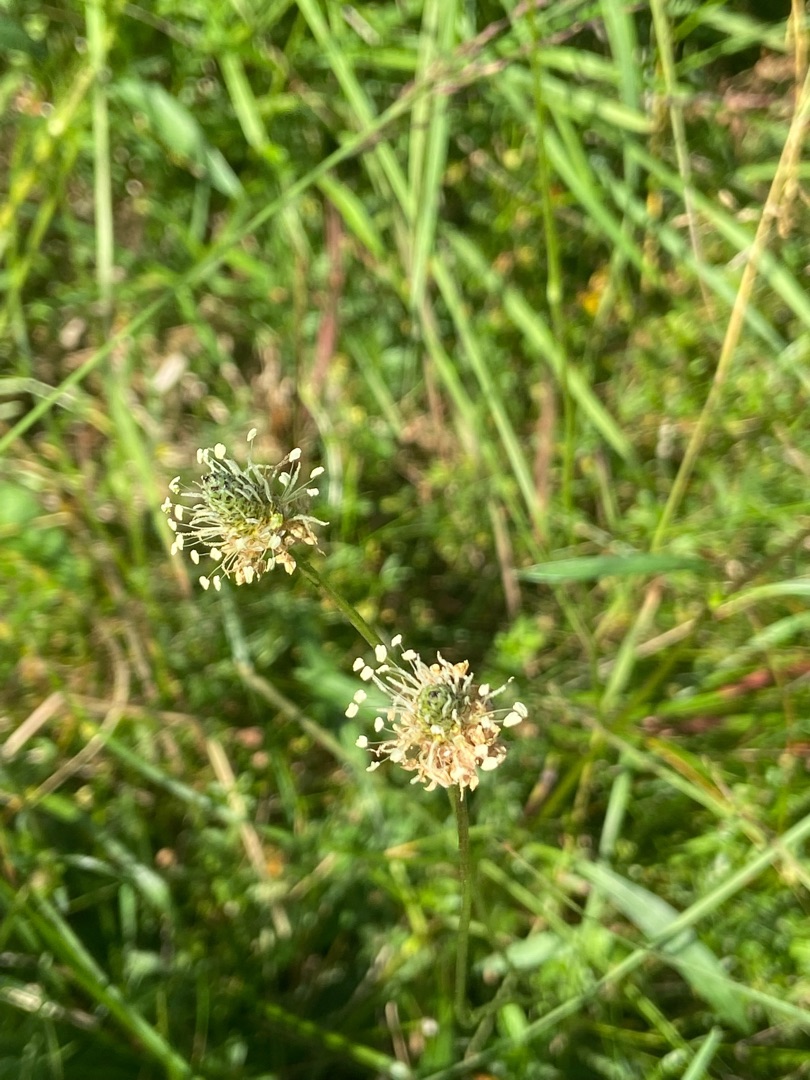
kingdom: Plantae
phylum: Tracheophyta
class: Magnoliopsida
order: Lamiales
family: Plantaginaceae
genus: Plantago
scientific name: Plantago lanceolata
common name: Lancet-vejbred
